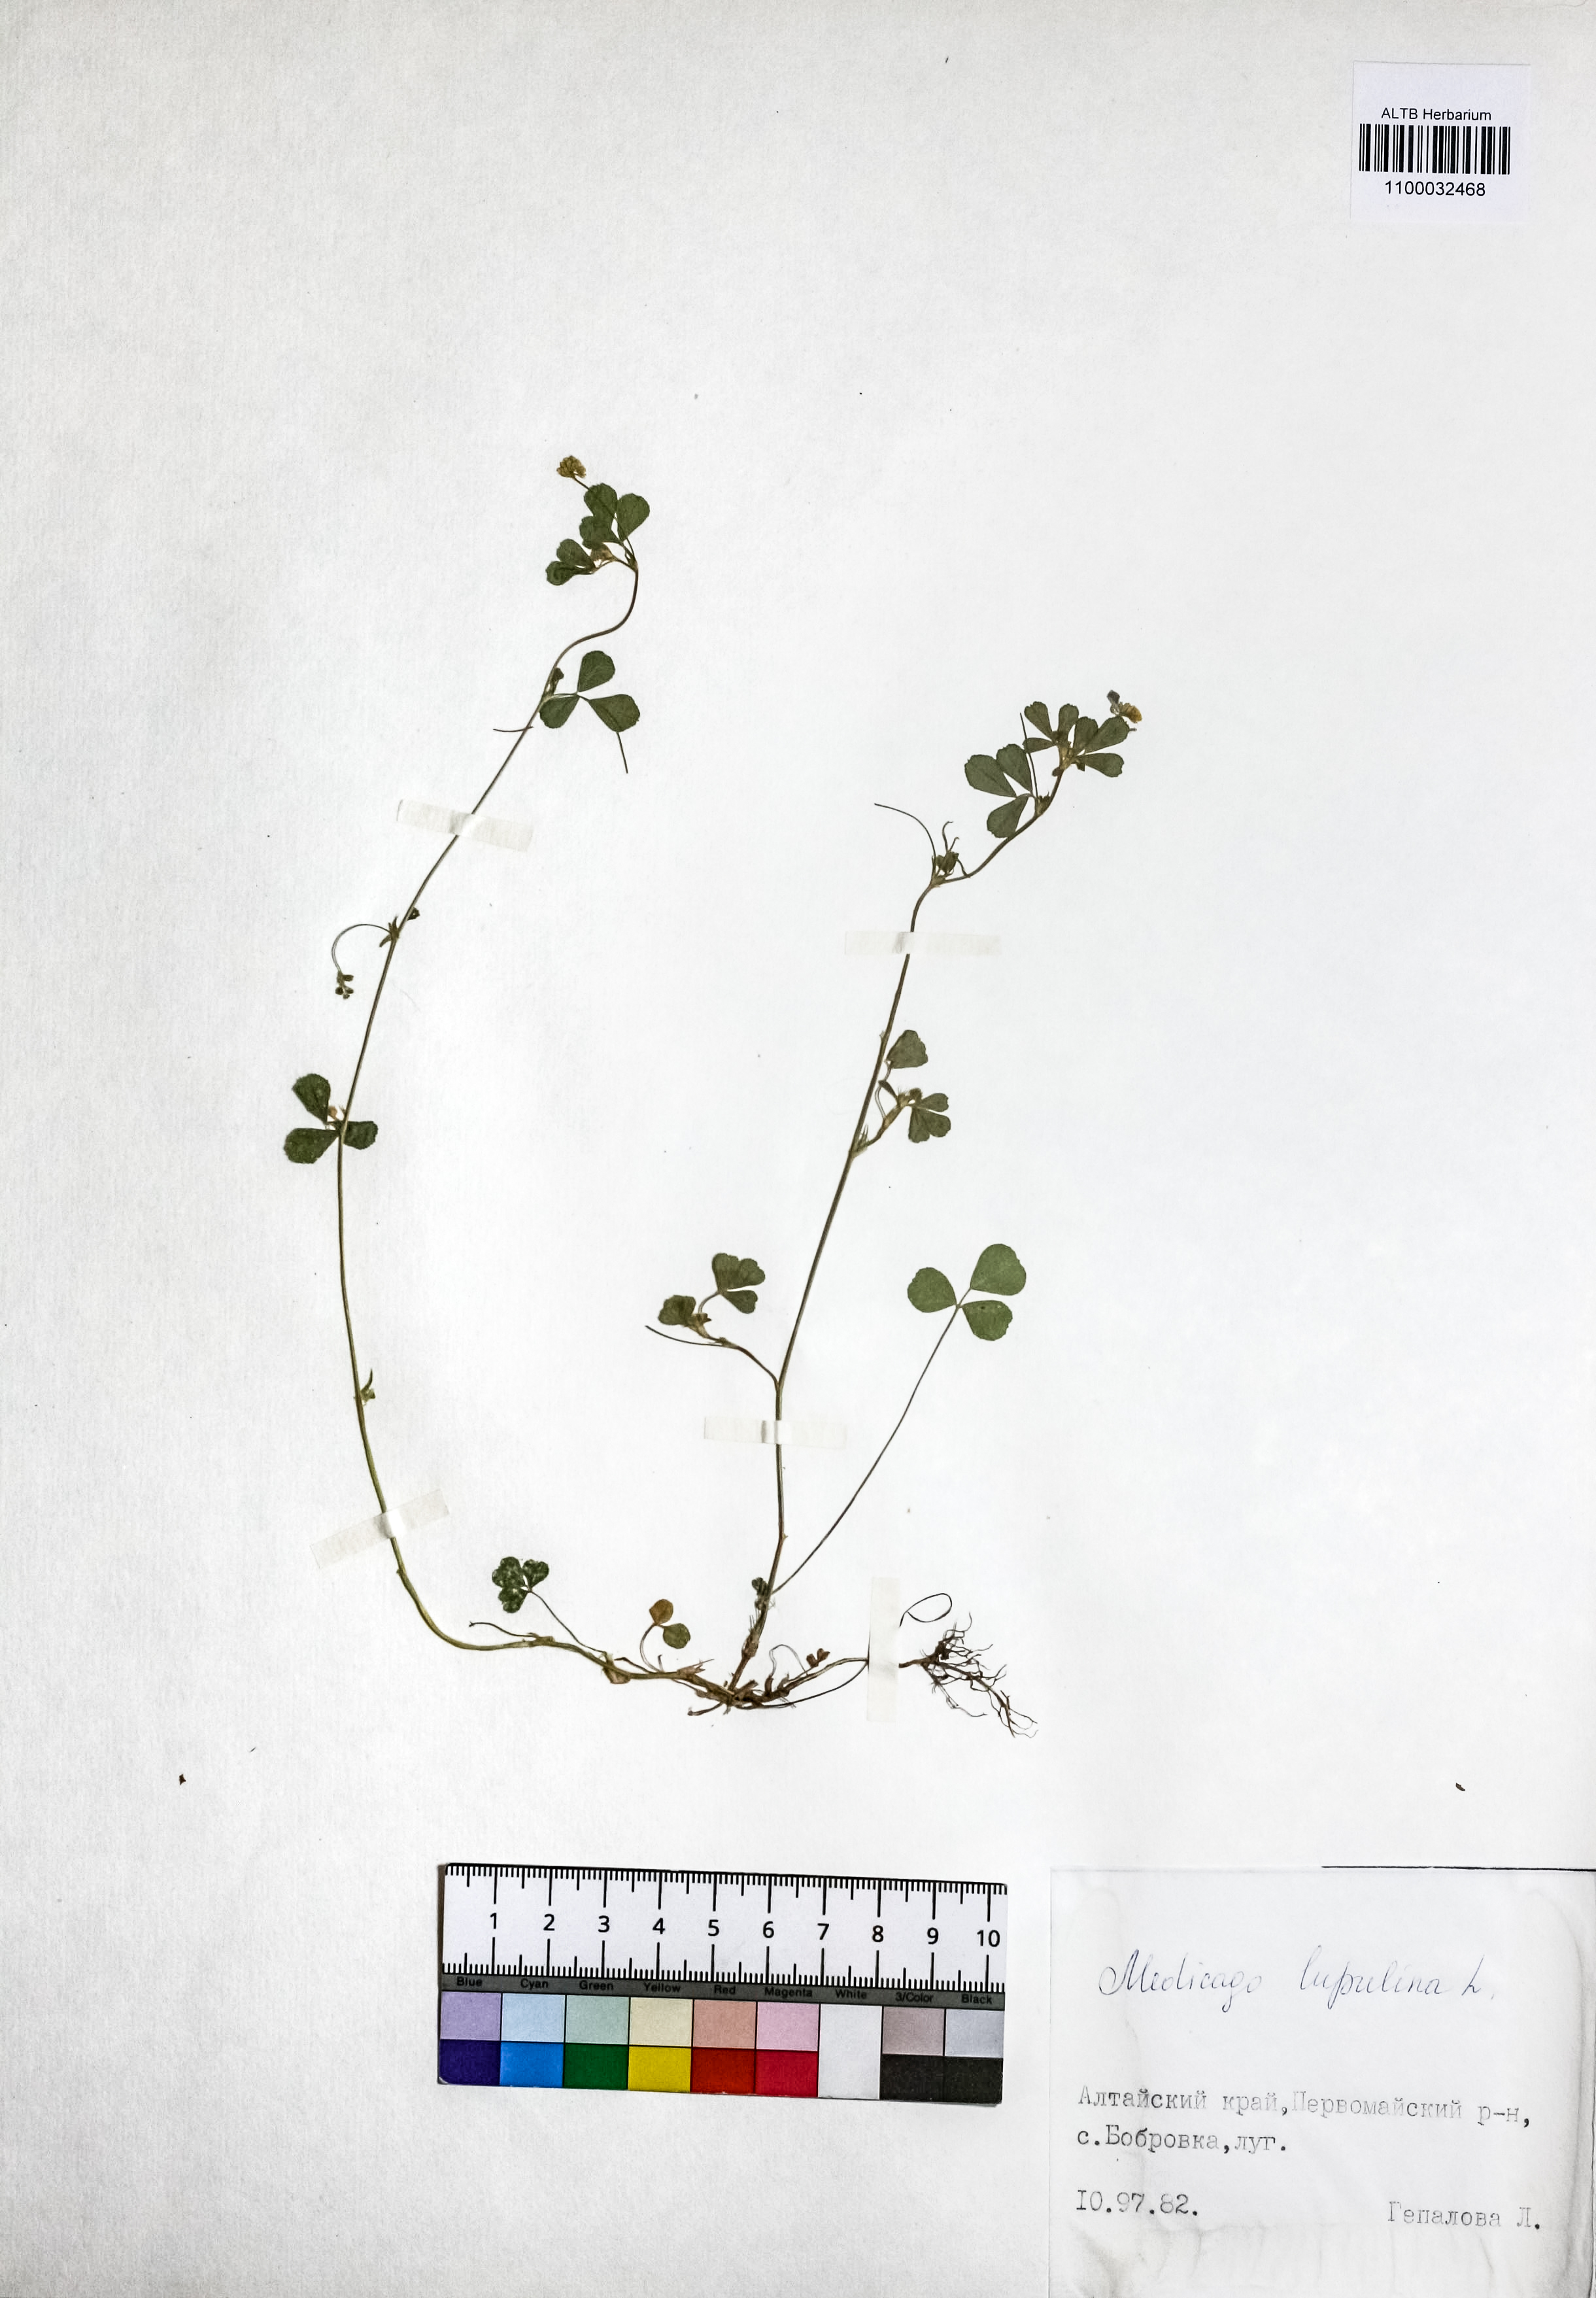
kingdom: Plantae
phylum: Tracheophyta
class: Magnoliopsida
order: Fabales
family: Fabaceae
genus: Medicago
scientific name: Medicago lupulina
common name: Black medick
